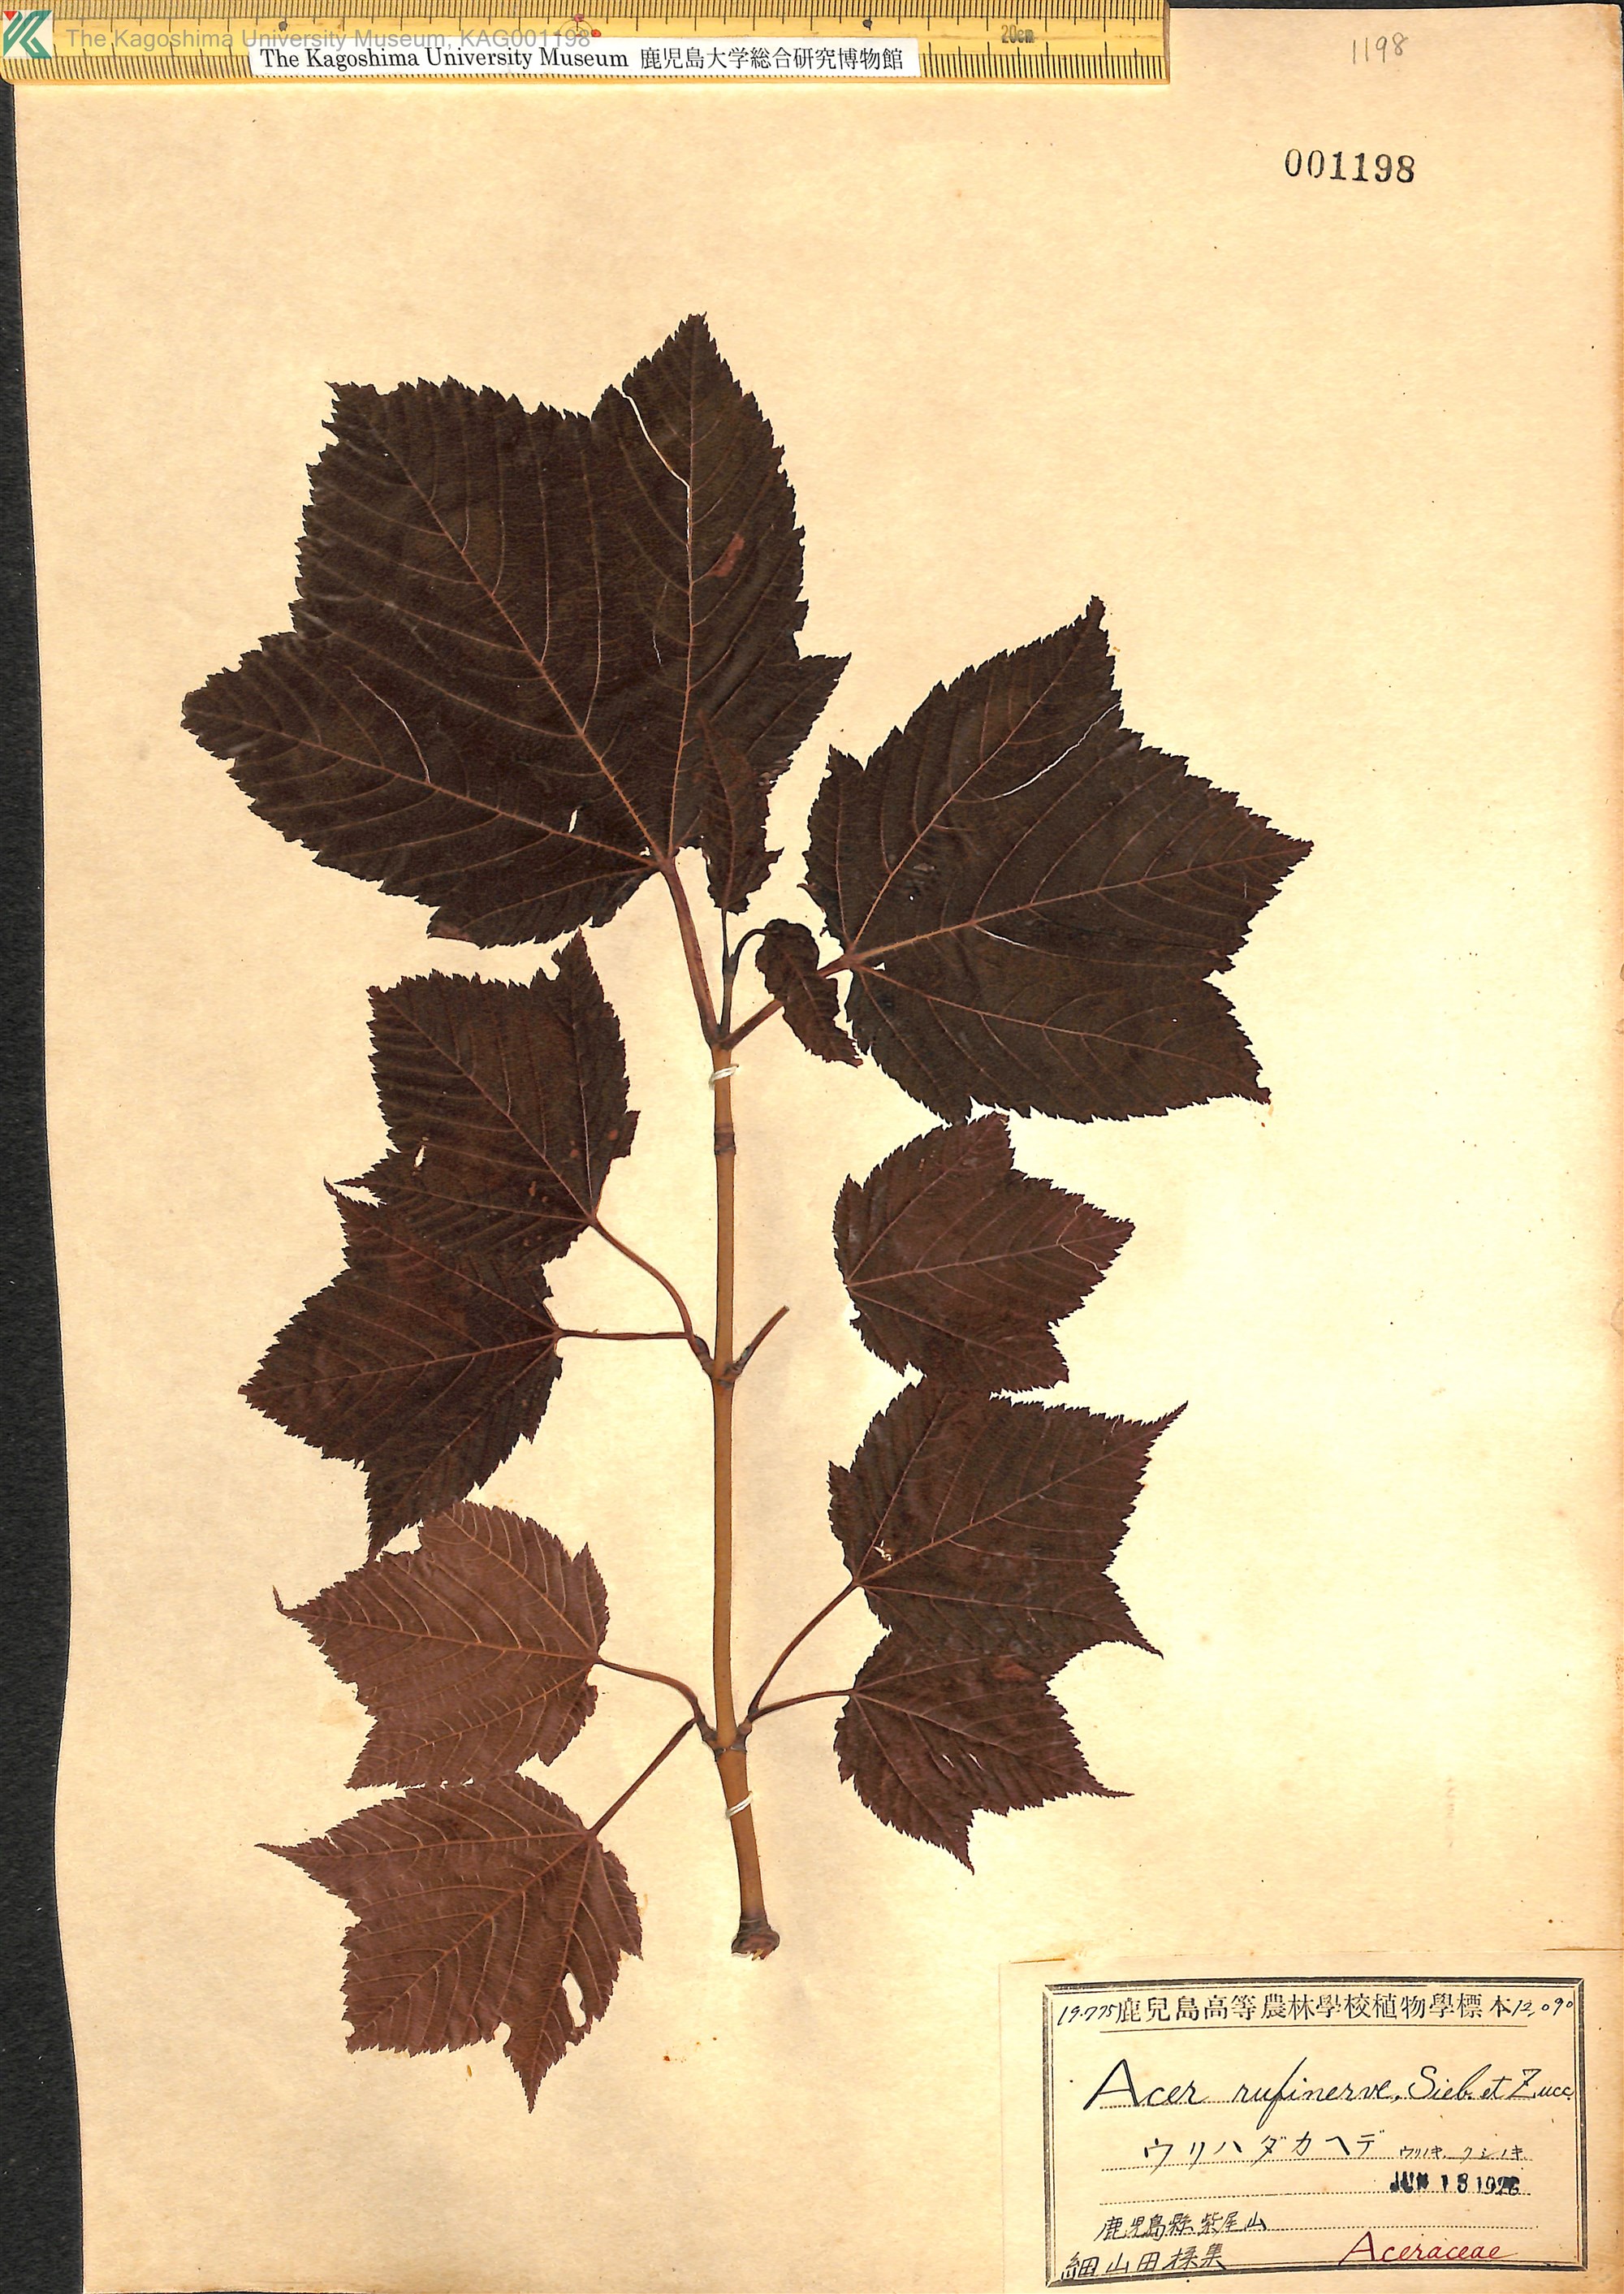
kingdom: Plantae
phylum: Tracheophyta
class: Magnoliopsida
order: Sapindales
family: Sapindaceae
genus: Acer
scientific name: Acer rufinerve
